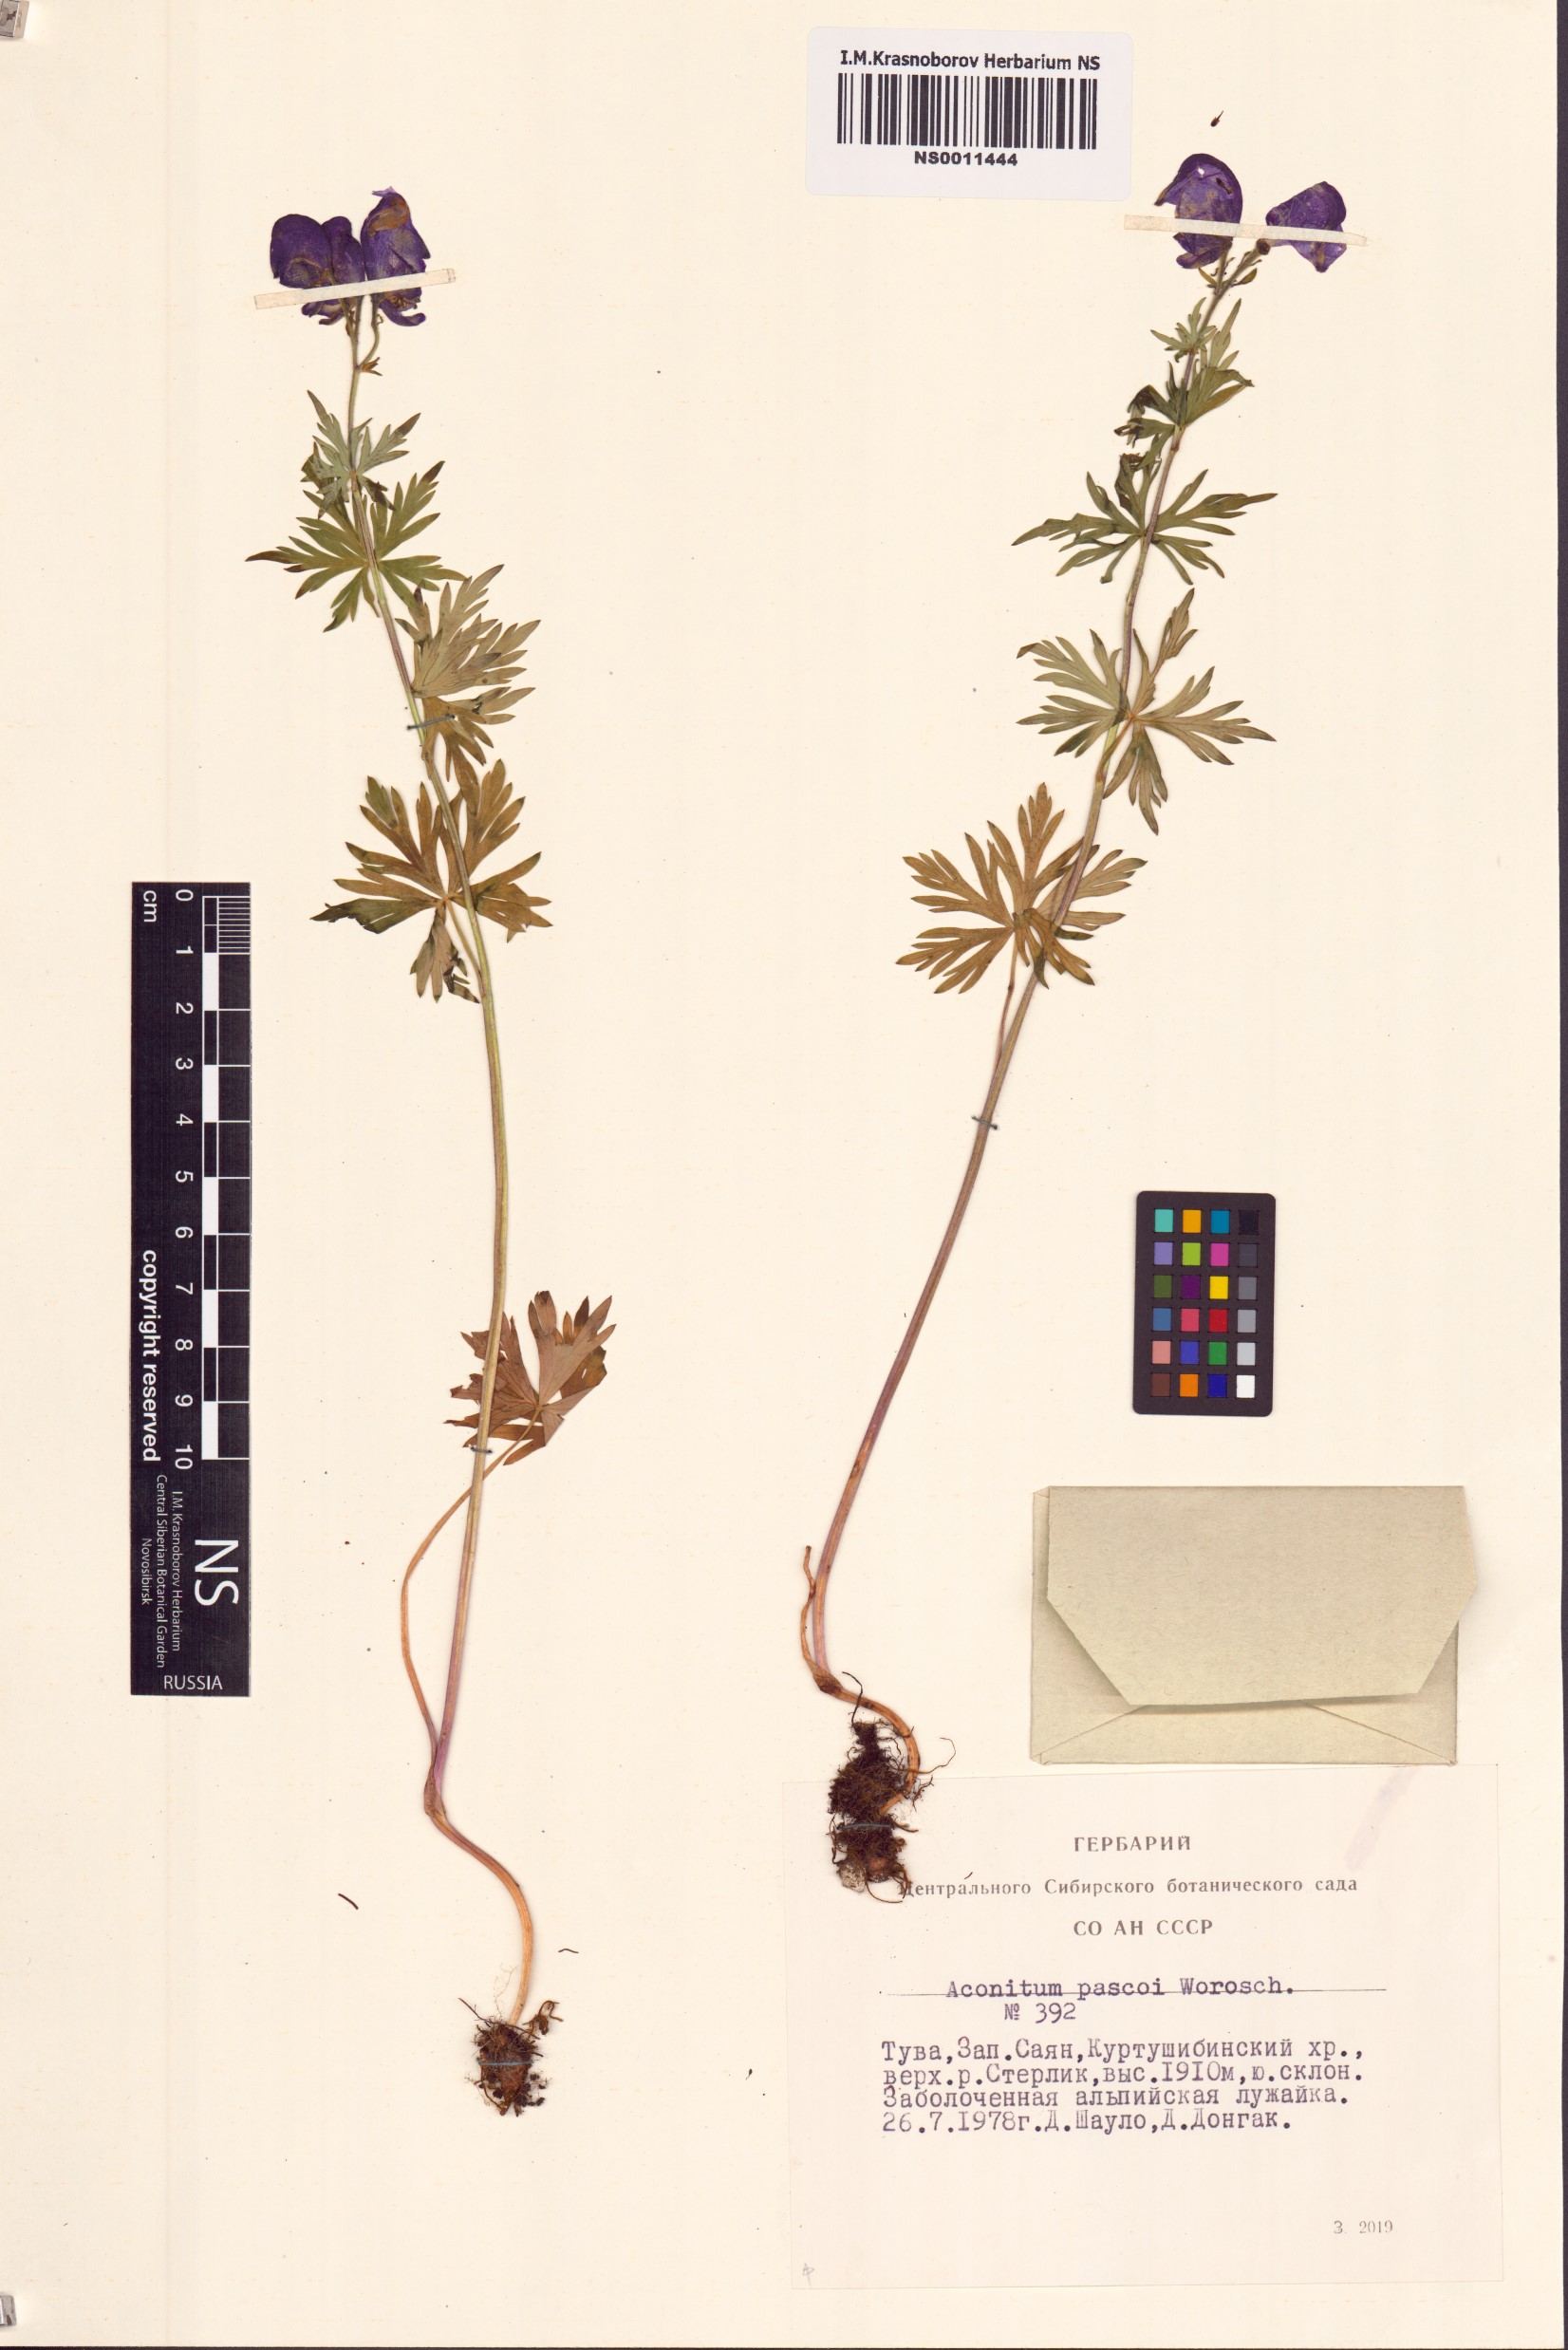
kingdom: Plantae
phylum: Tracheophyta
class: Magnoliopsida
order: Ranunculales
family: Ranunculaceae
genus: Aconitum
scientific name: Aconitum pascoi
